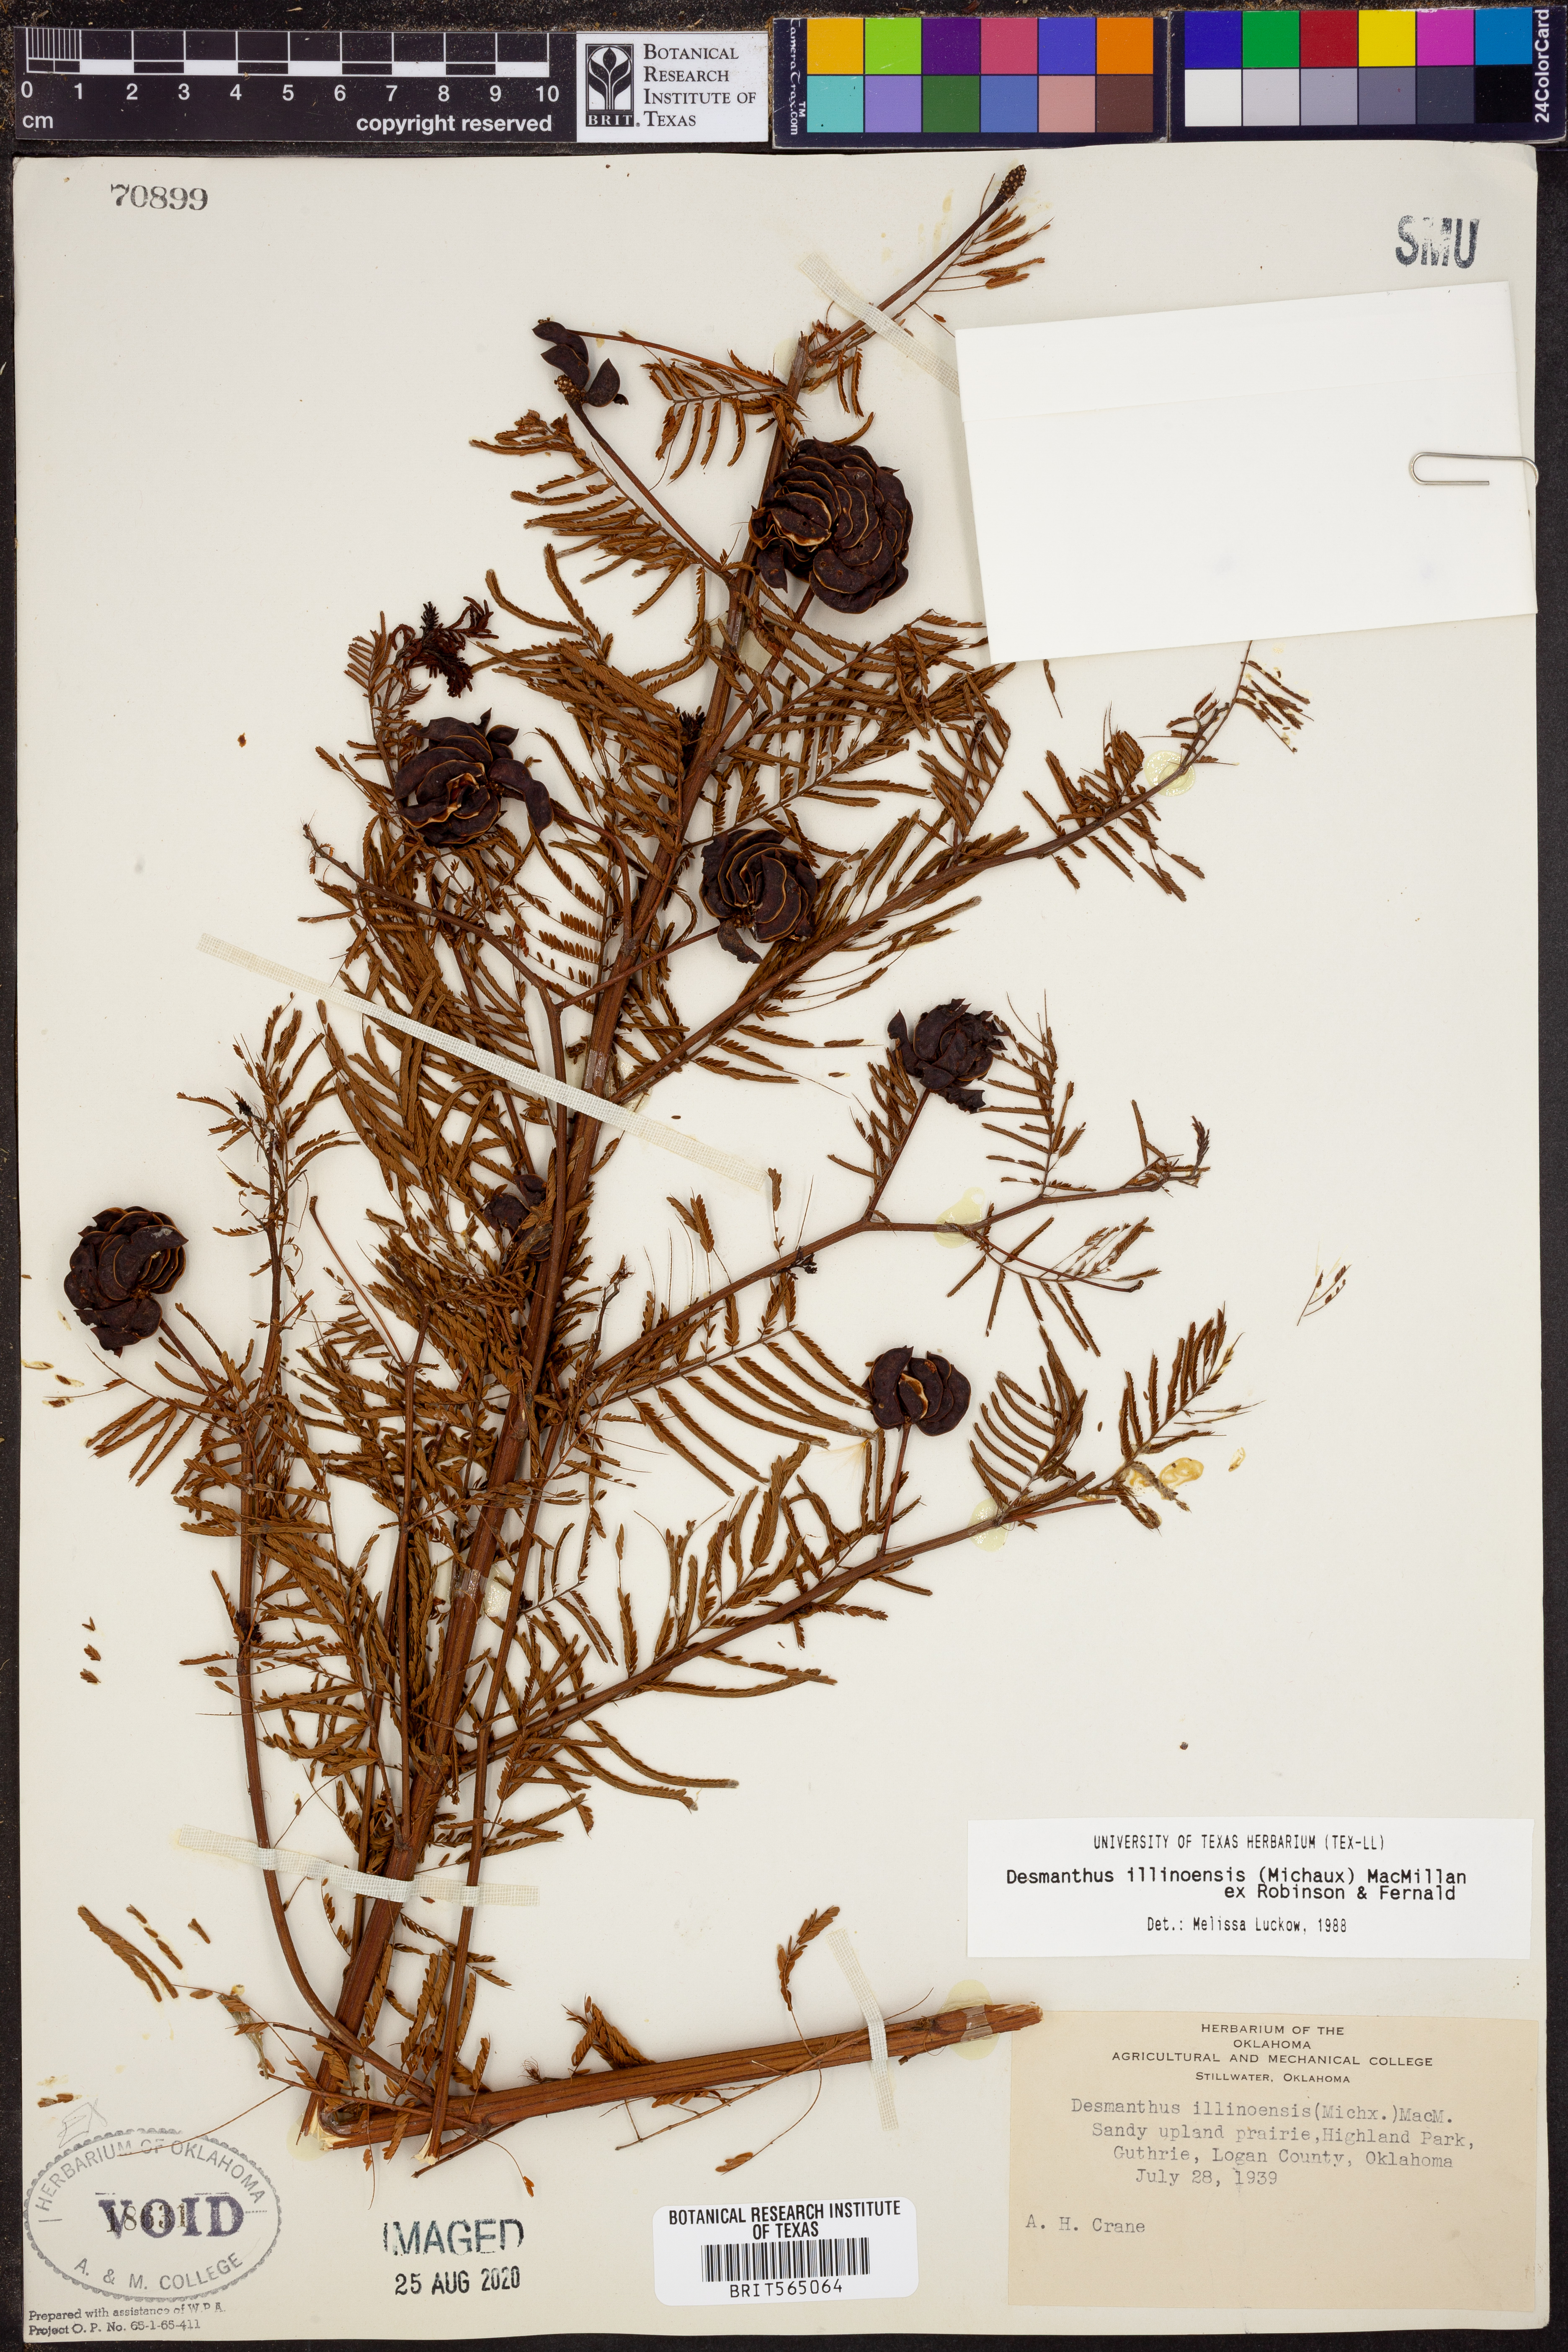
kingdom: Plantae
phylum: Tracheophyta
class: Magnoliopsida
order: Fabales
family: Fabaceae
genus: Desmanthus
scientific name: Desmanthus illinoensis
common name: Illinois bundle-flower
